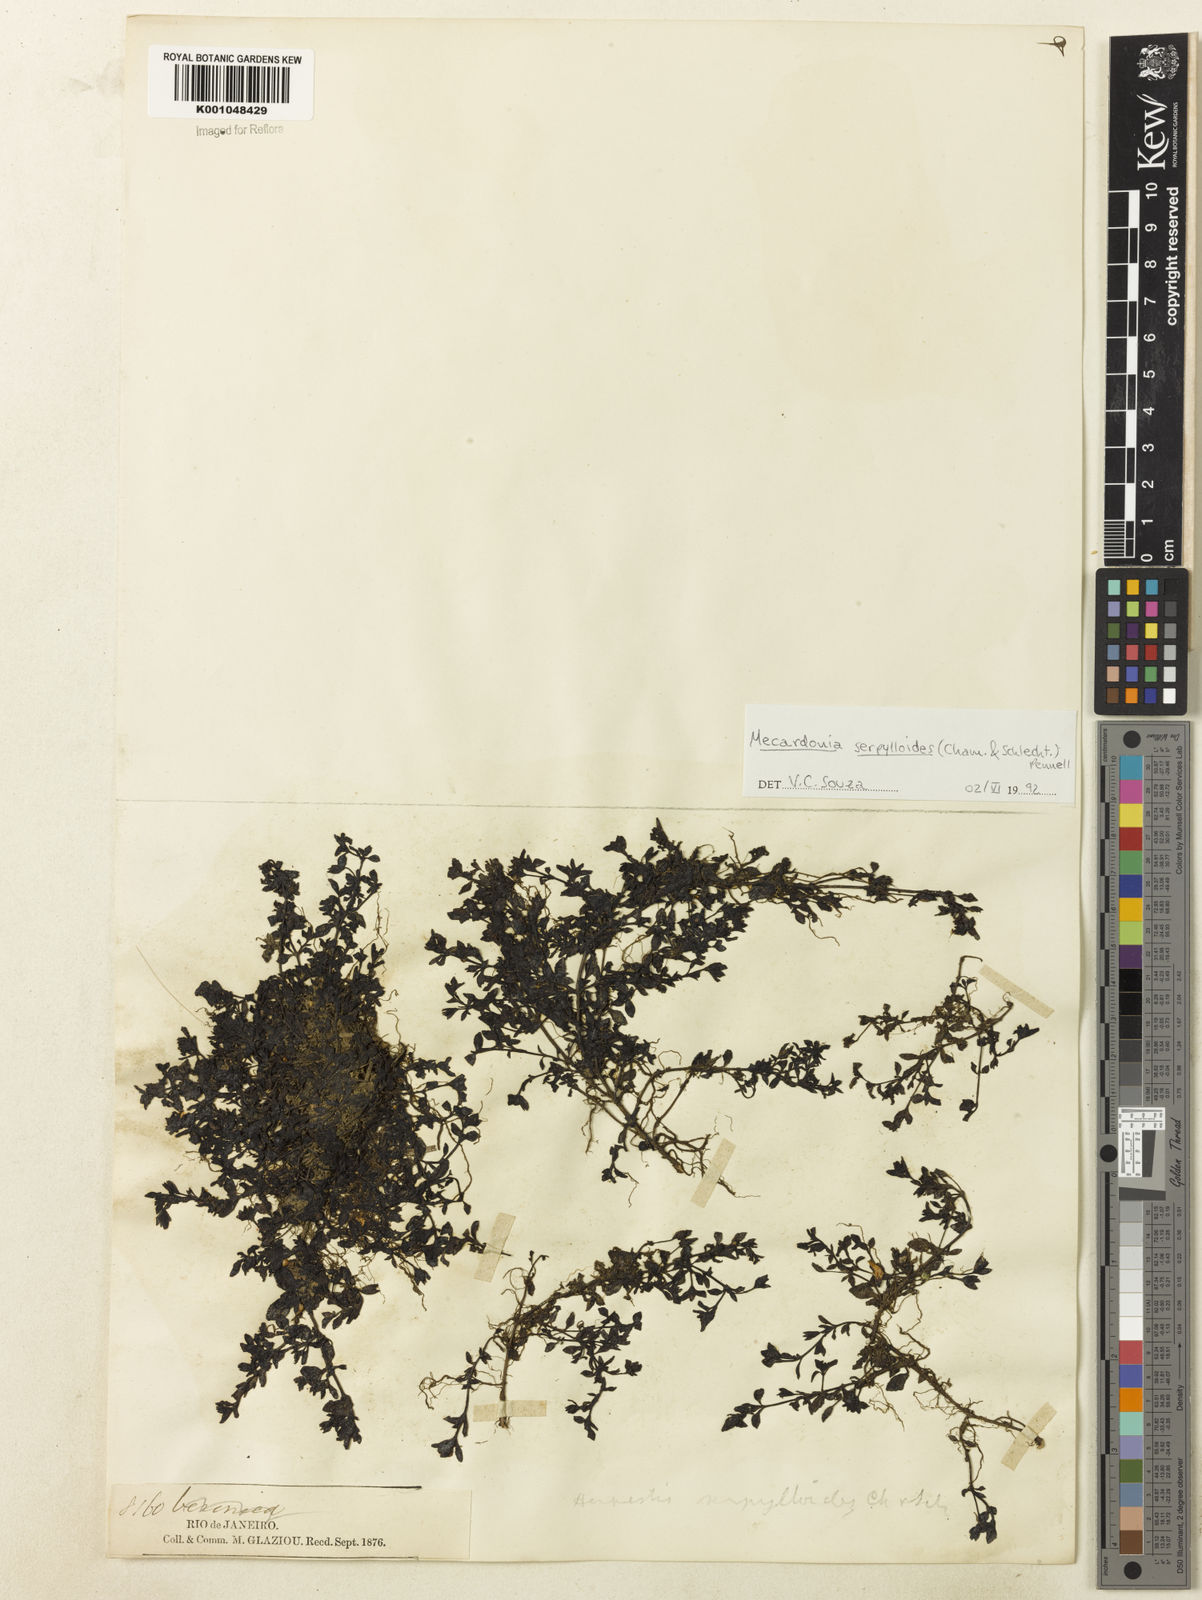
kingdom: Plantae
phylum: Tracheophyta
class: Magnoliopsida
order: Lamiales
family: Plantaginaceae
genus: Mecardonia
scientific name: Mecardonia serpylloides
